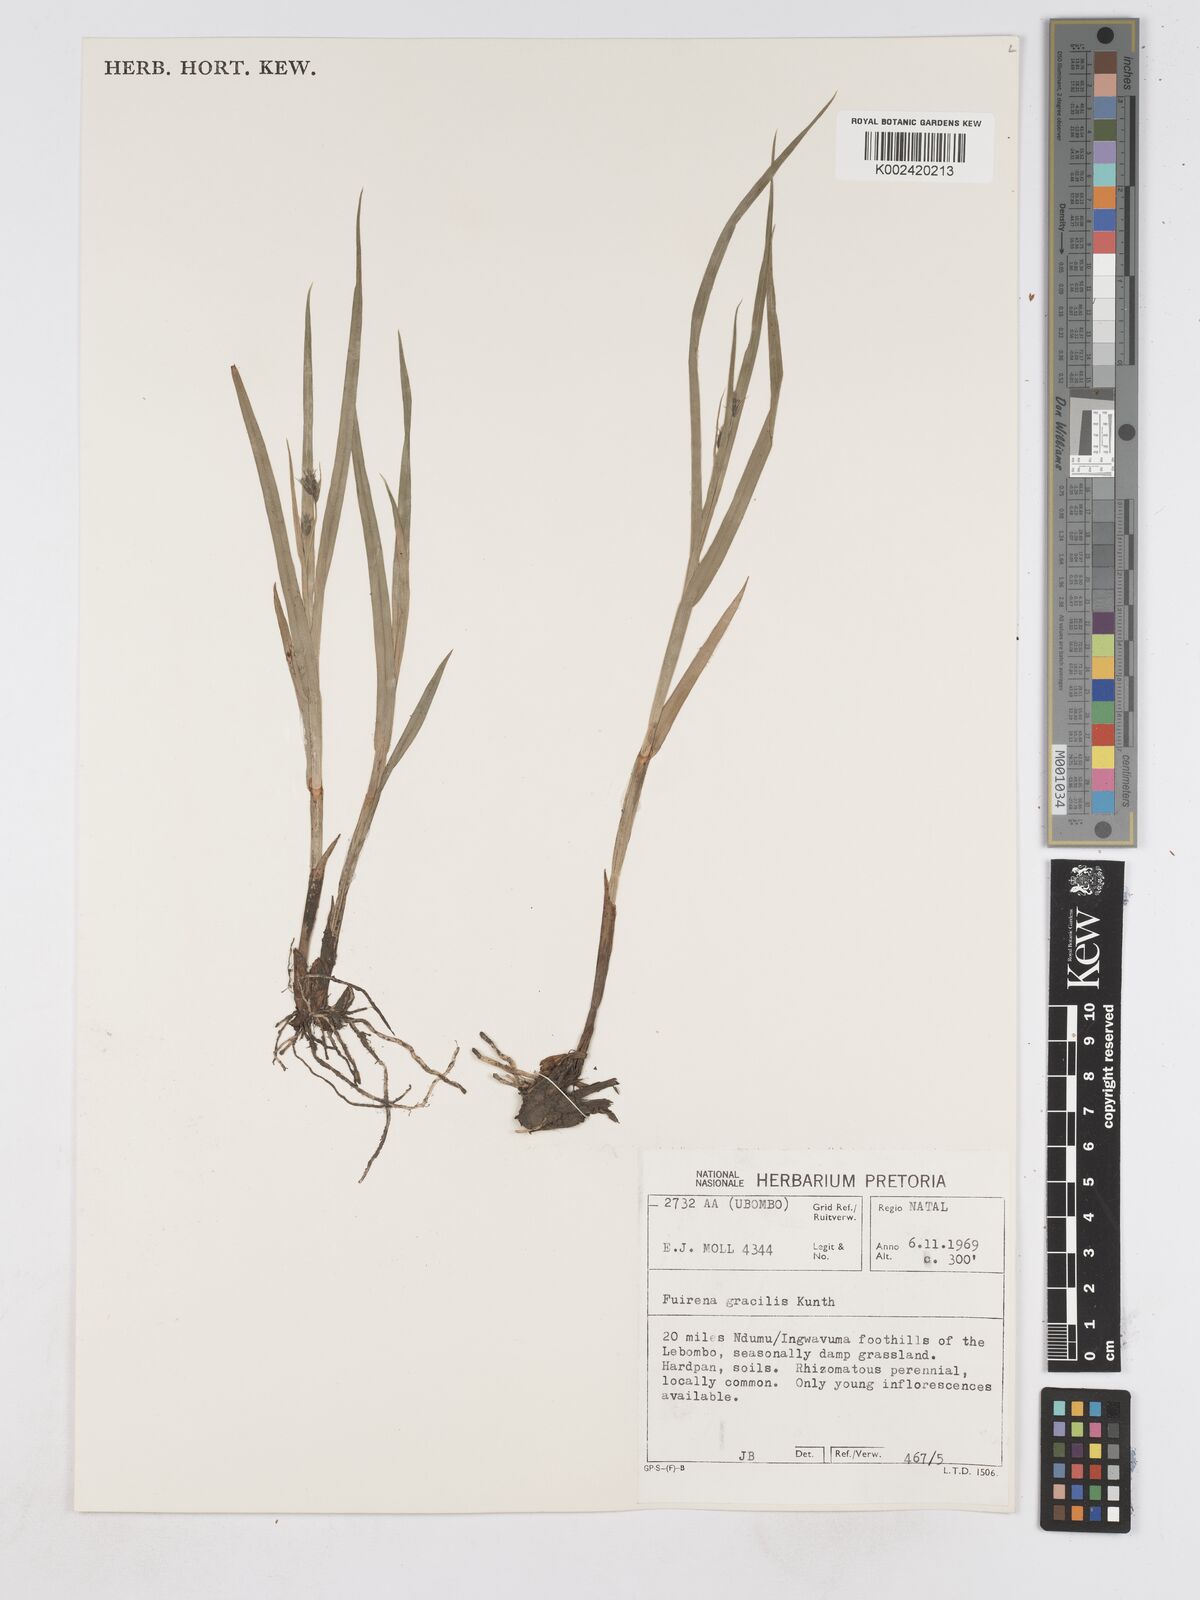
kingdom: Plantae
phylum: Tracheophyta
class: Liliopsida
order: Poales
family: Cyperaceae
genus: Fuirena
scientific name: Fuirena coerulescens
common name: Blue umbrella-sedge
